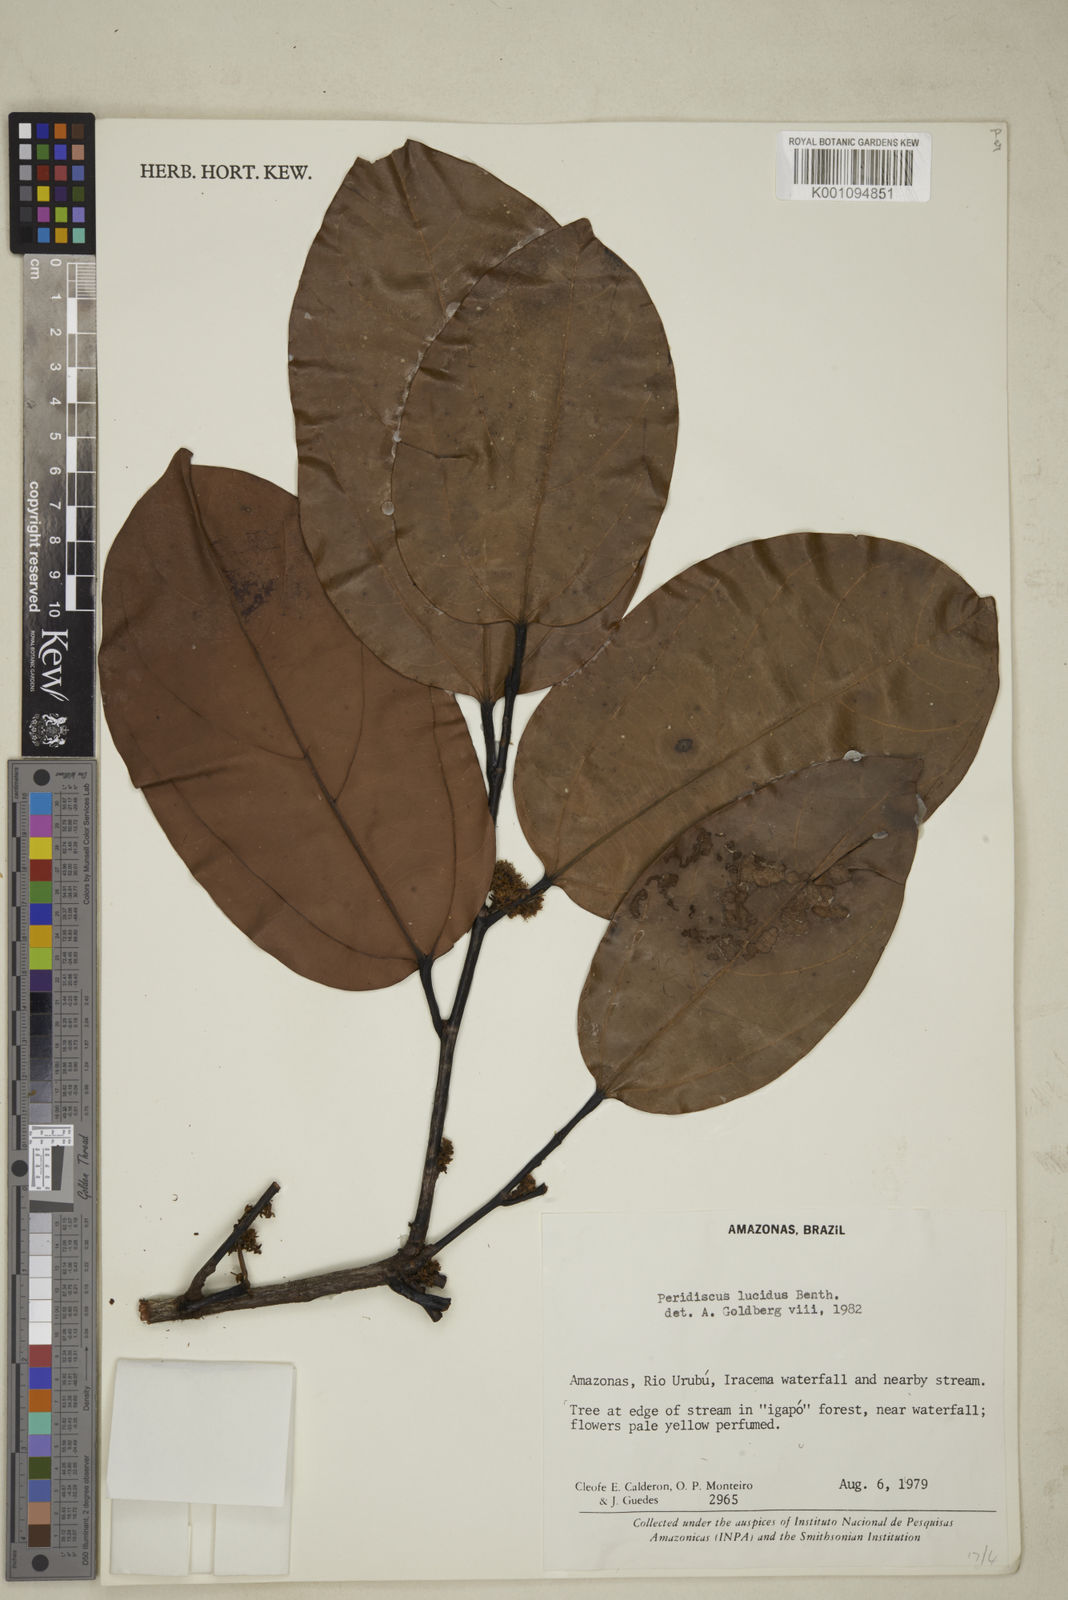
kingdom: Plantae
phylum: Tracheophyta
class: Magnoliopsida
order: Saxifragales
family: Peridiscaceae
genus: Peridiscus
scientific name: Peridiscus lucidus
